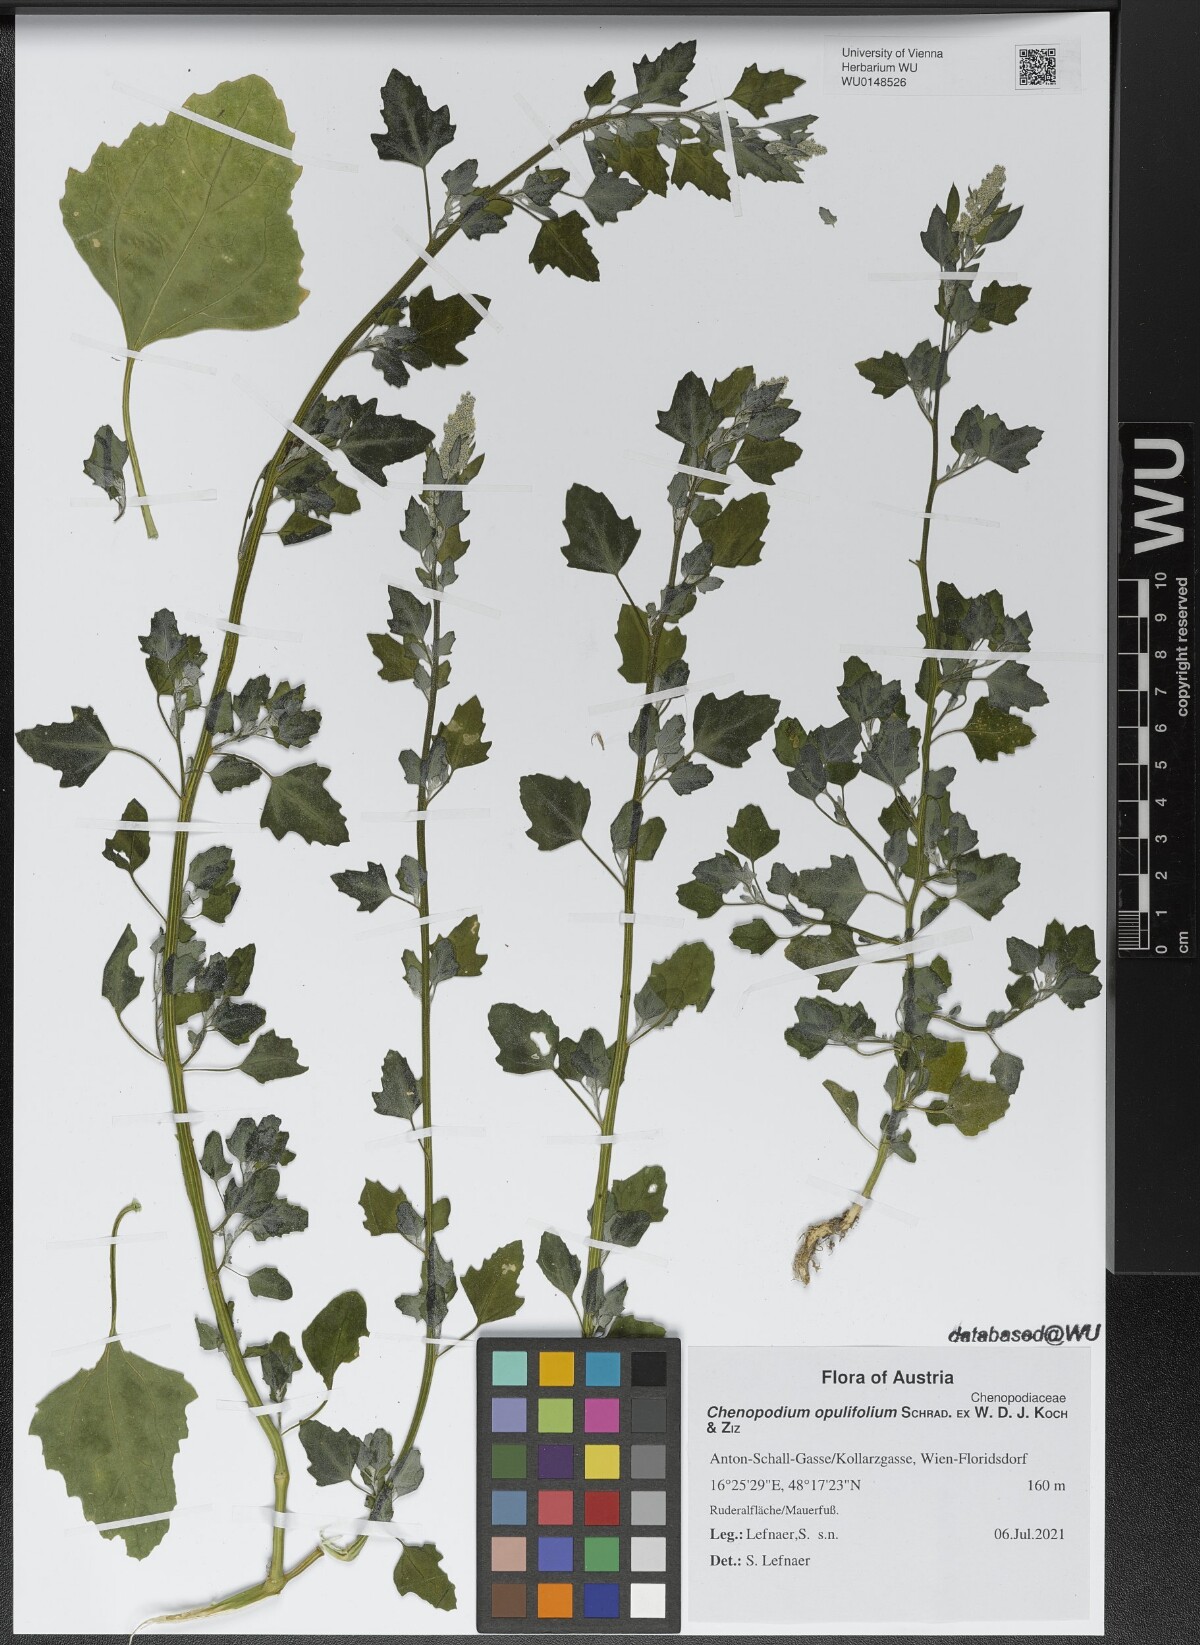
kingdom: Plantae
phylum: Tracheophyta
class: Magnoliopsida
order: Caryophyllales
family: Amaranthaceae
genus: Chenopodium
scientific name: Chenopodium opulifolium
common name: Grey goosefoot
